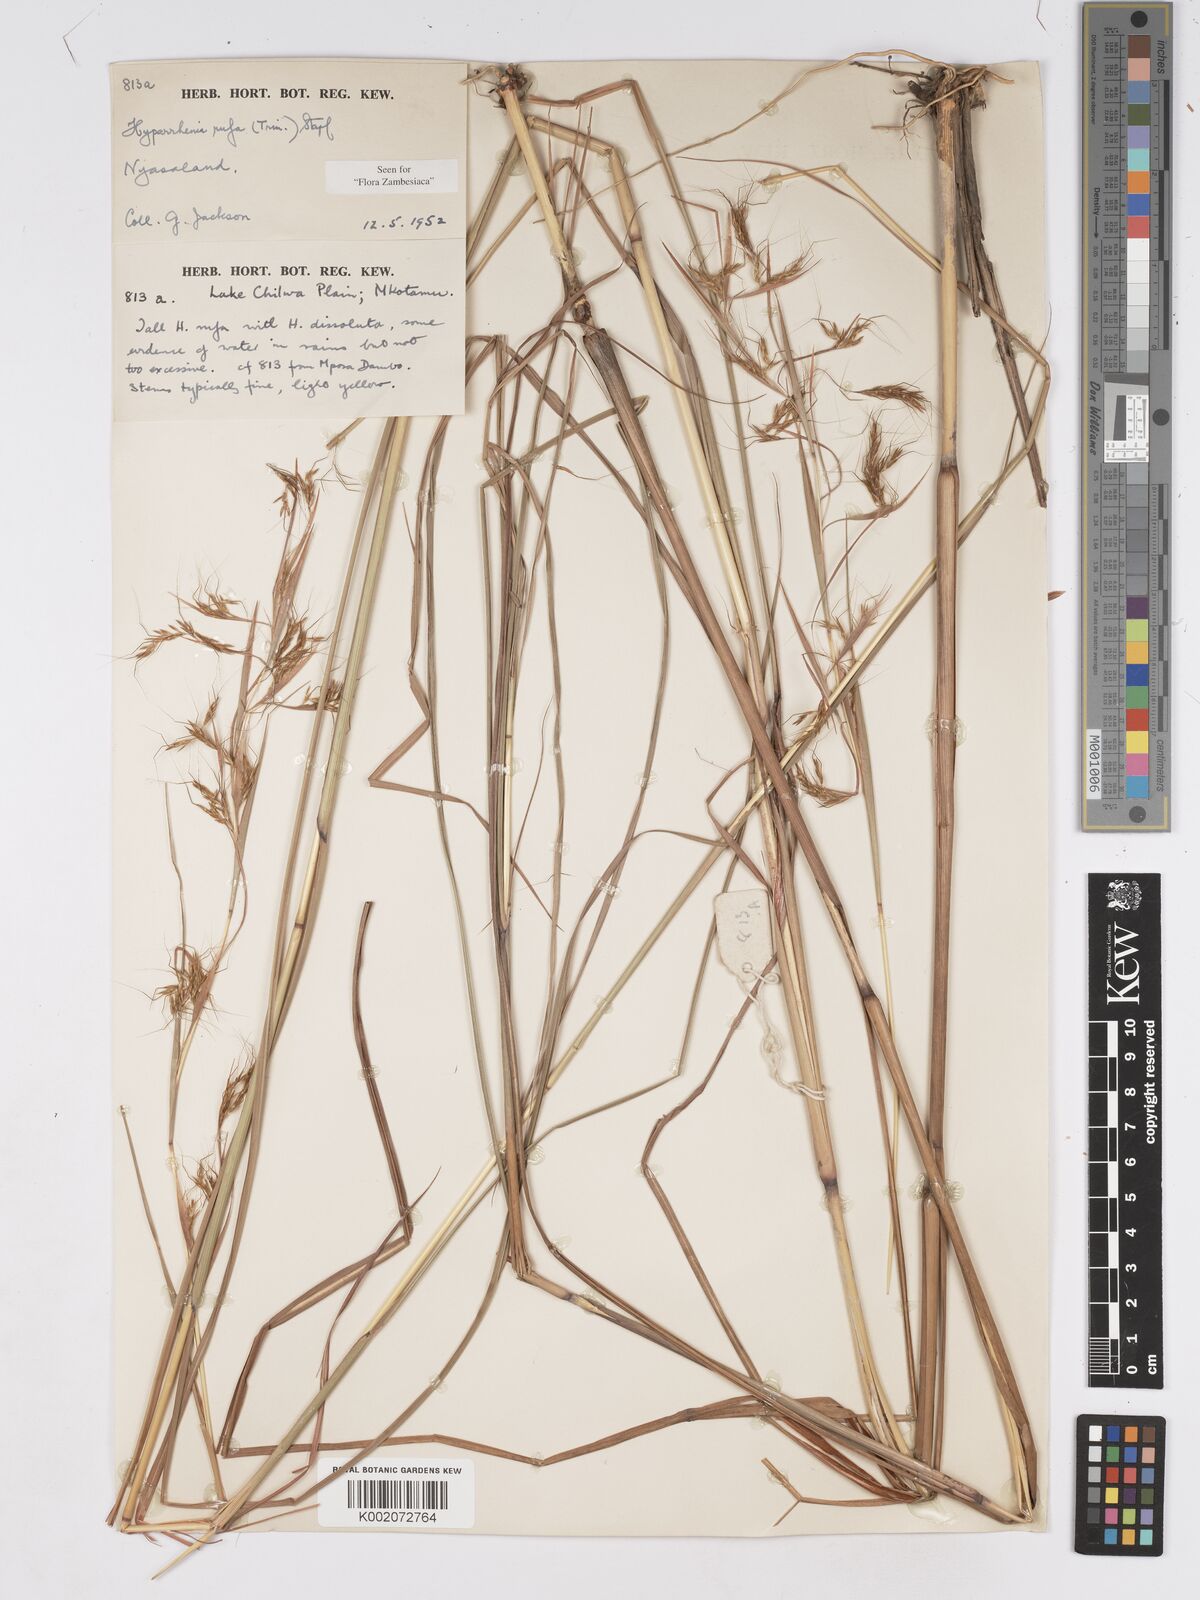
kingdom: Plantae
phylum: Tracheophyta
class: Liliopsida
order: Poales
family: Poaceae
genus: Hyparrhenia
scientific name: Hyparrhenia rufa
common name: Jaraguagrass
